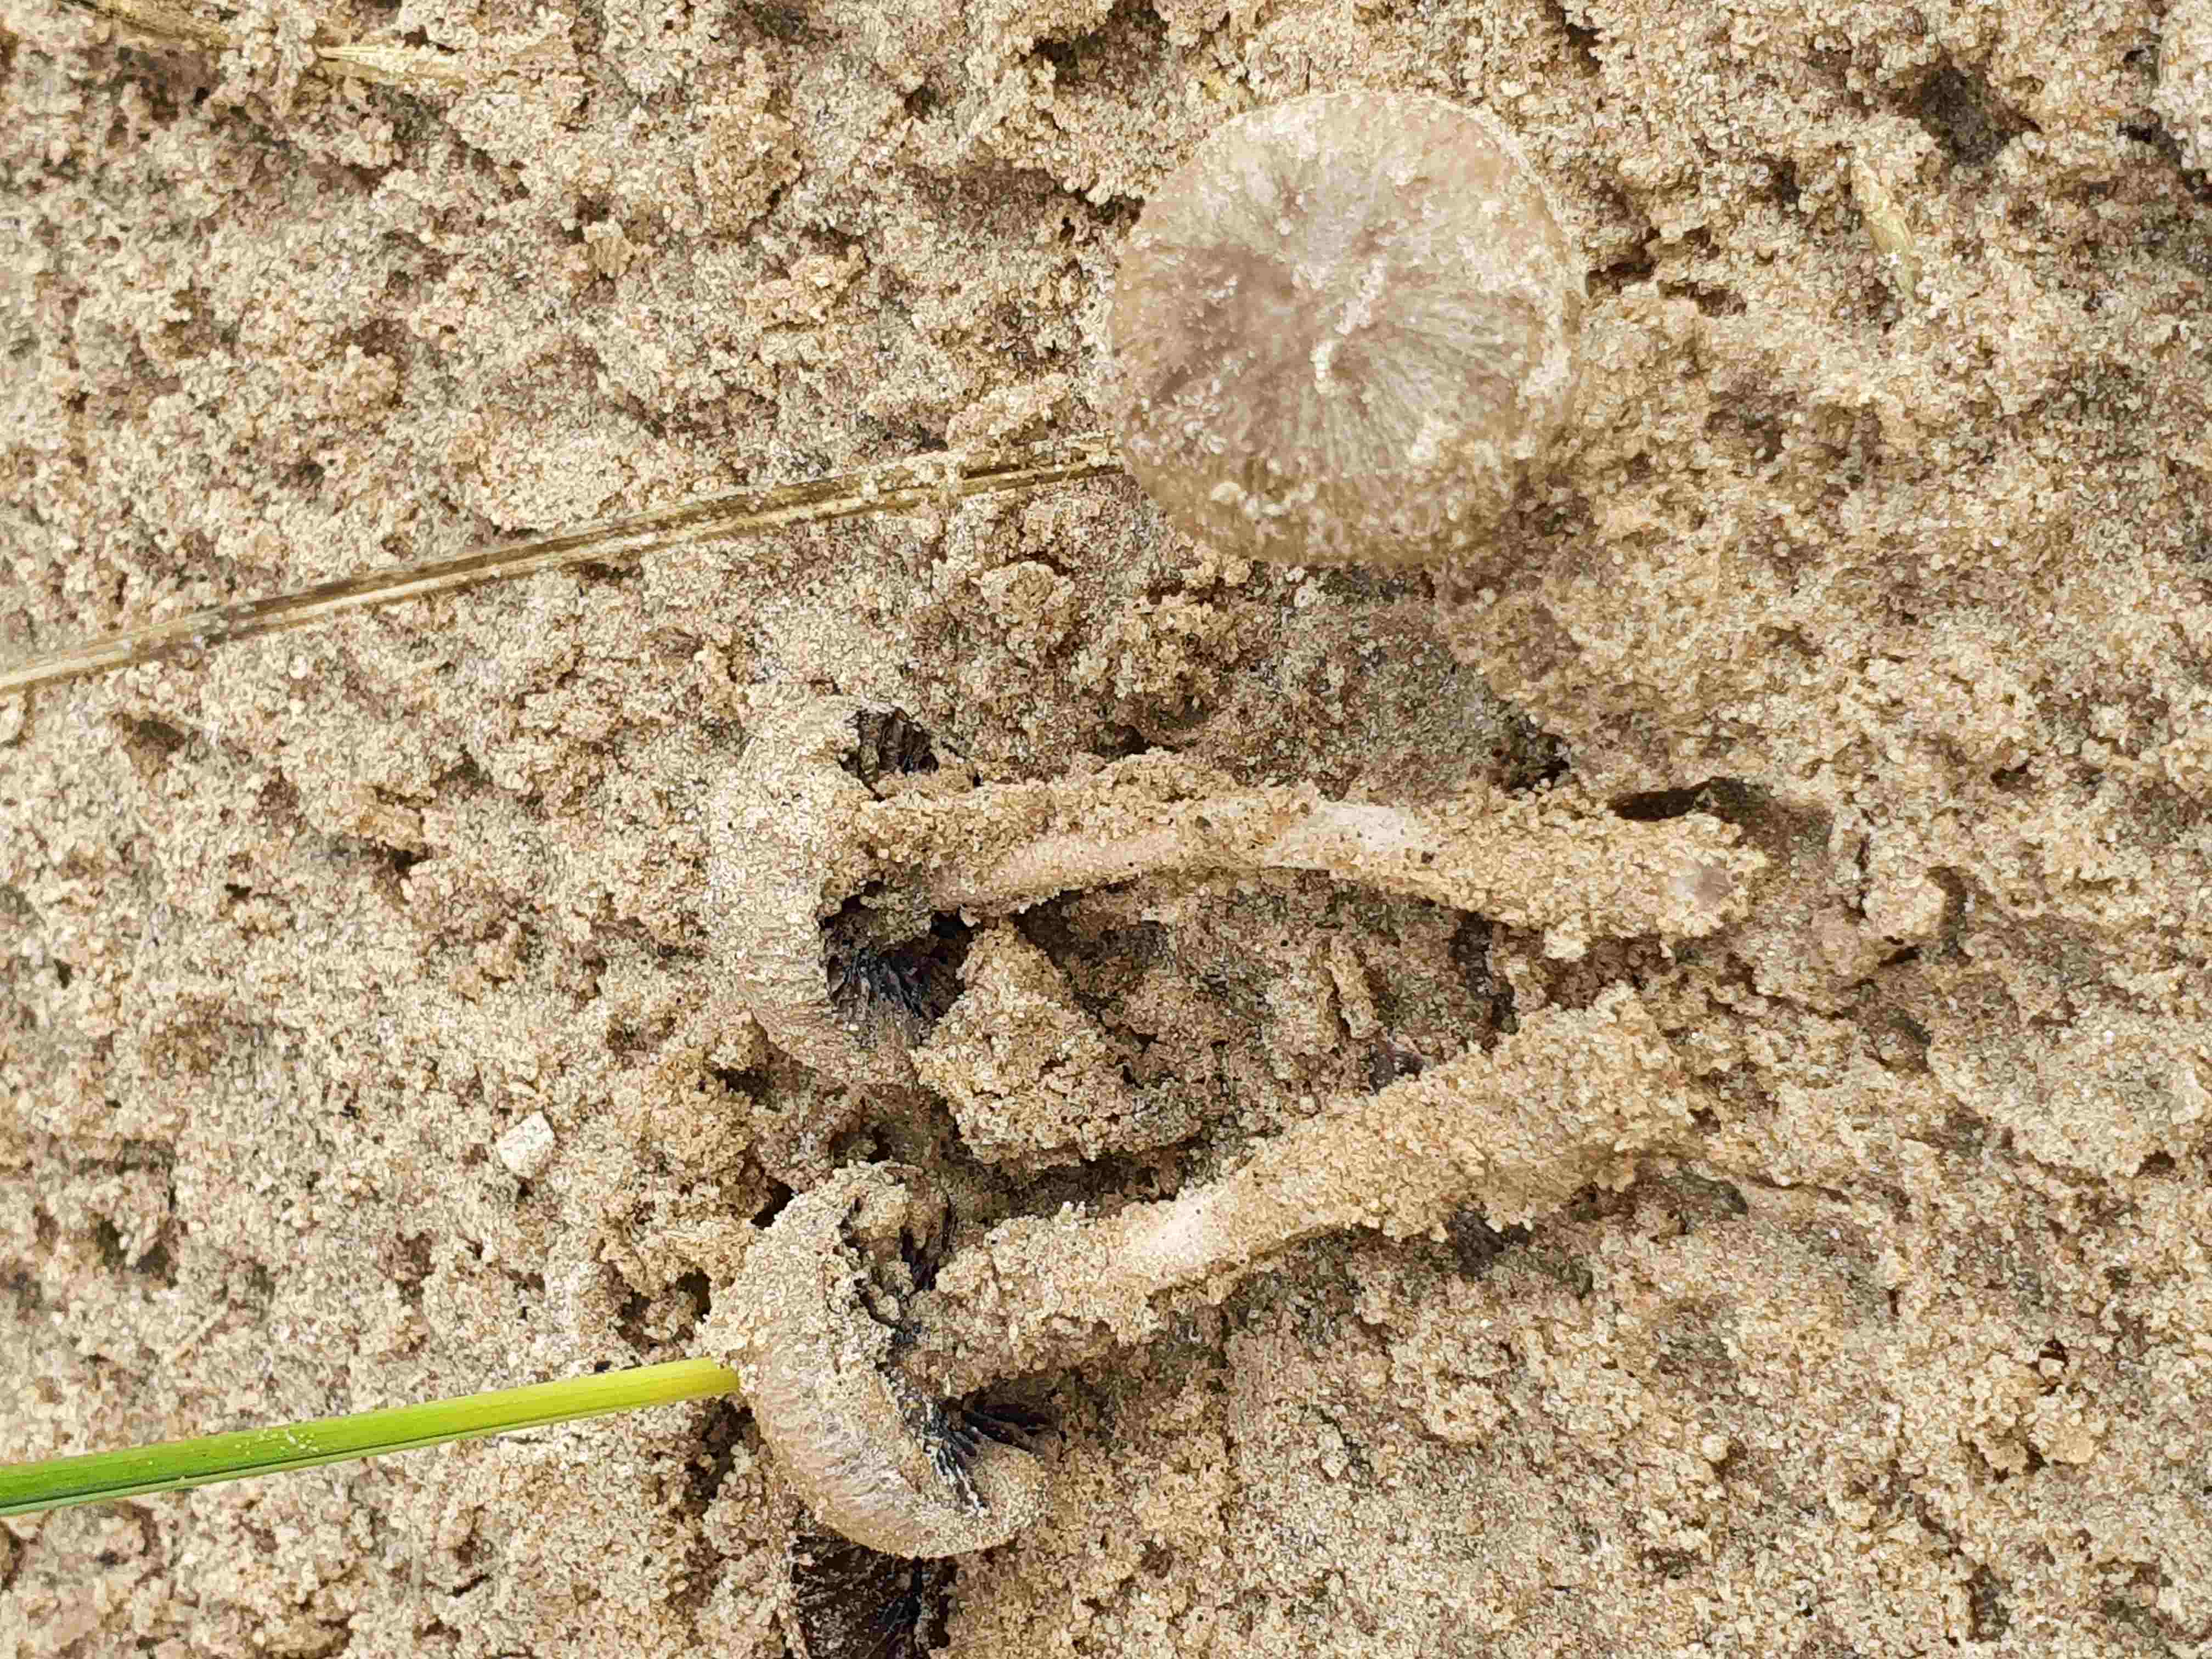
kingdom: Fungi
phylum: Basidiomycota
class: Agaricomycetes
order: Agaricales
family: Psathyrellaceae
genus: Psathyrella
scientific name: Psathyrella ammophila
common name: klit-mørkhat
